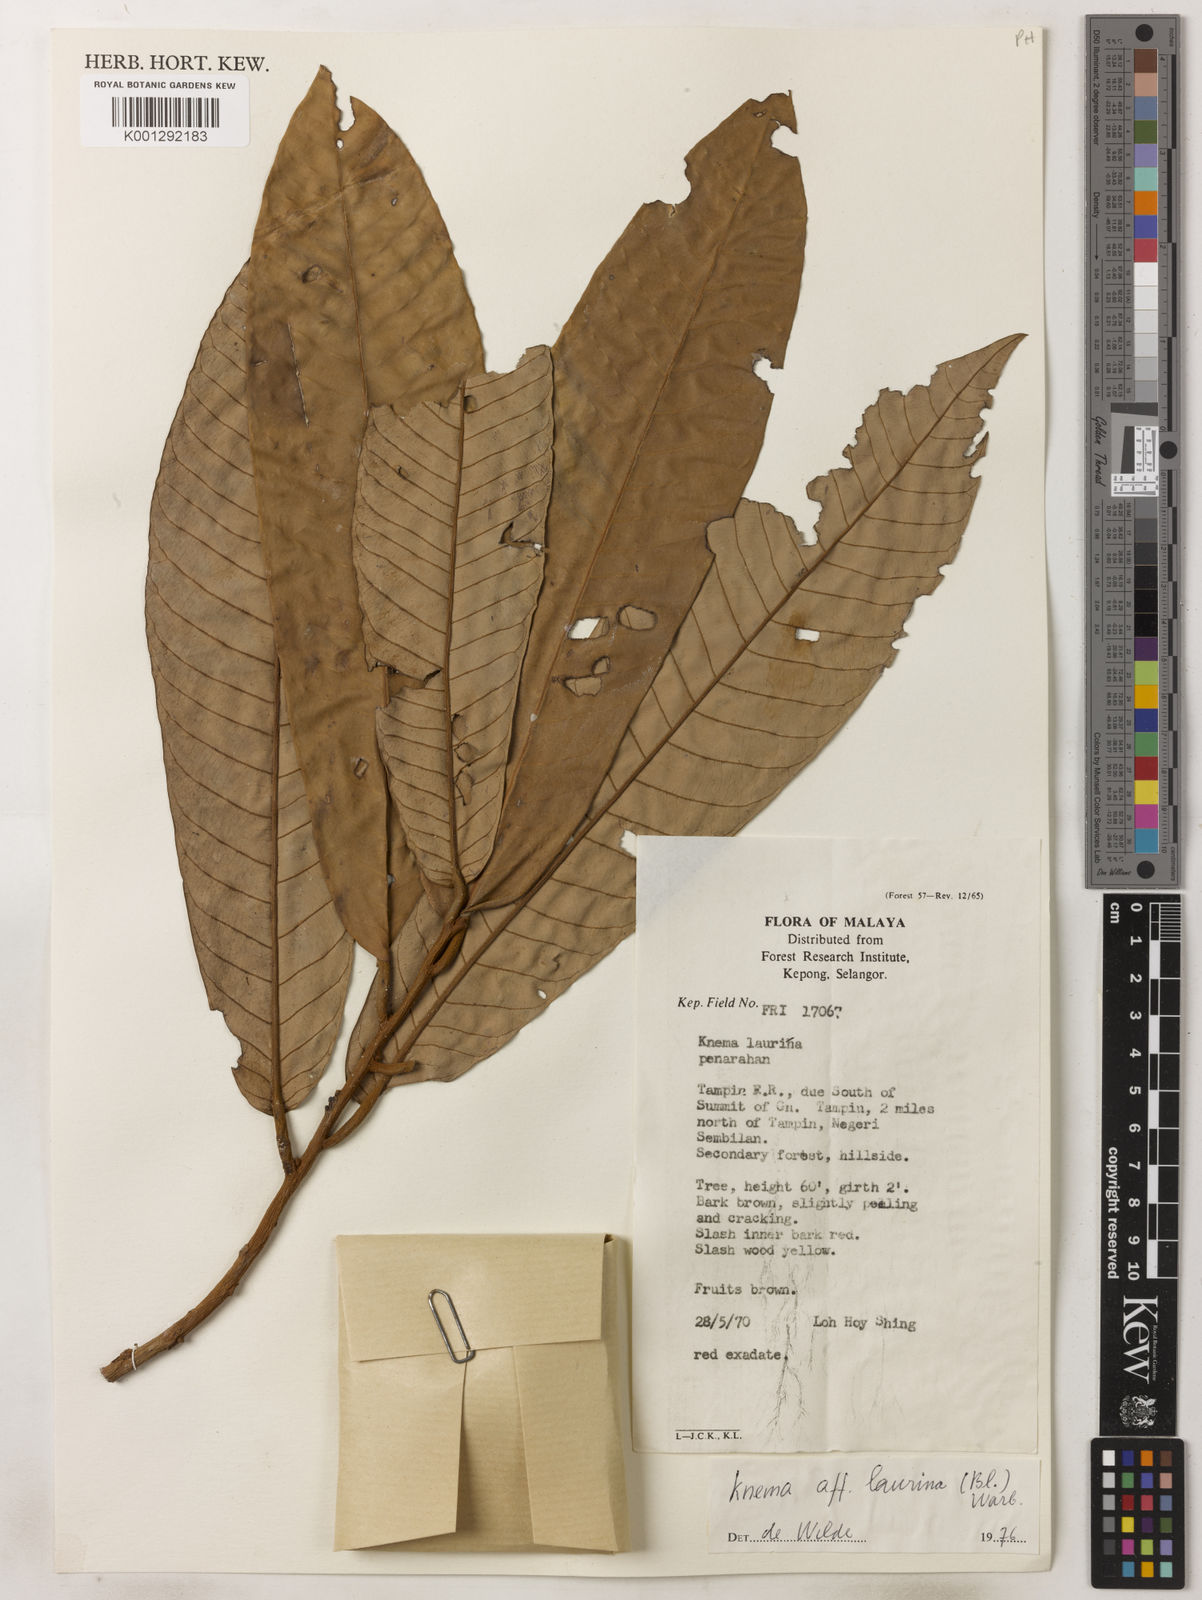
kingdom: Plantae
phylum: Tracheophyta
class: Magnoliopsida
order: Magnoliales
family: Myristicaceae
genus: Knema
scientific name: Knema laurina
